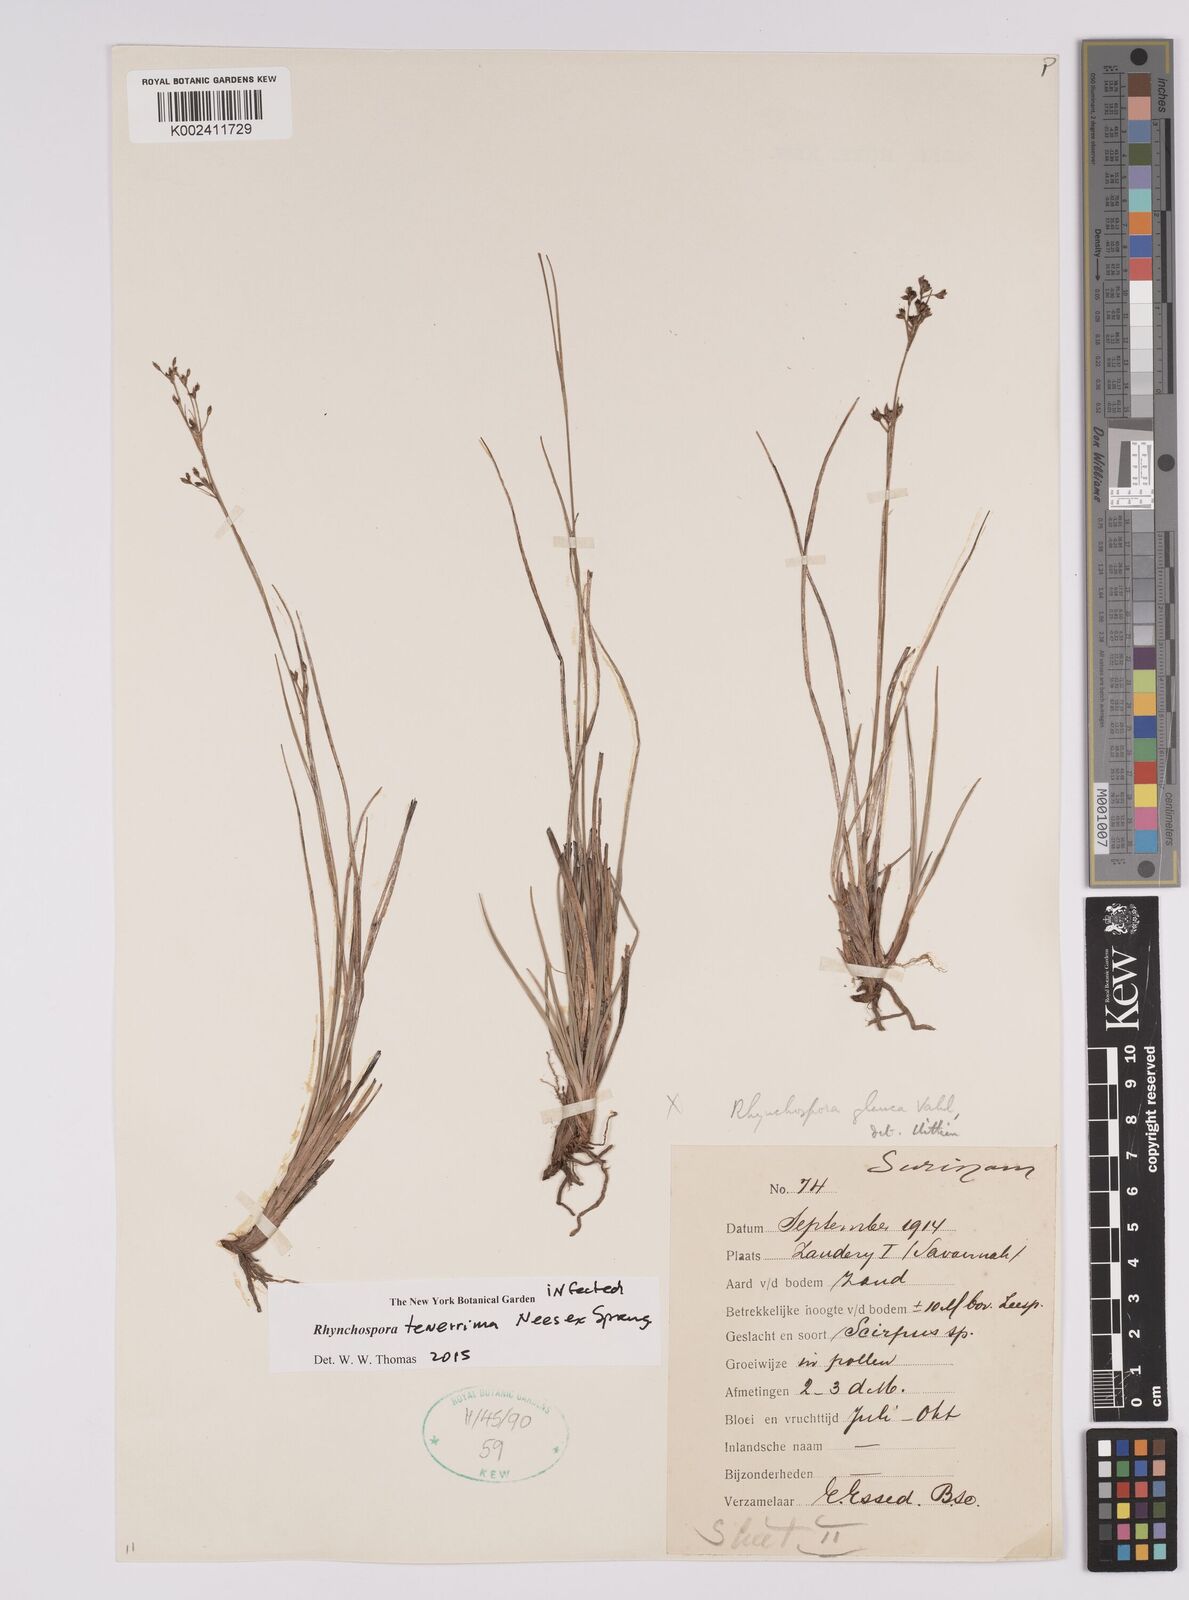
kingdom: Plantae
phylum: Tracheophyta
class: Liliopsida
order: Poales
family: Cyperaceae
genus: Rhynchospora
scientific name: Rhynchospora tenerrima
